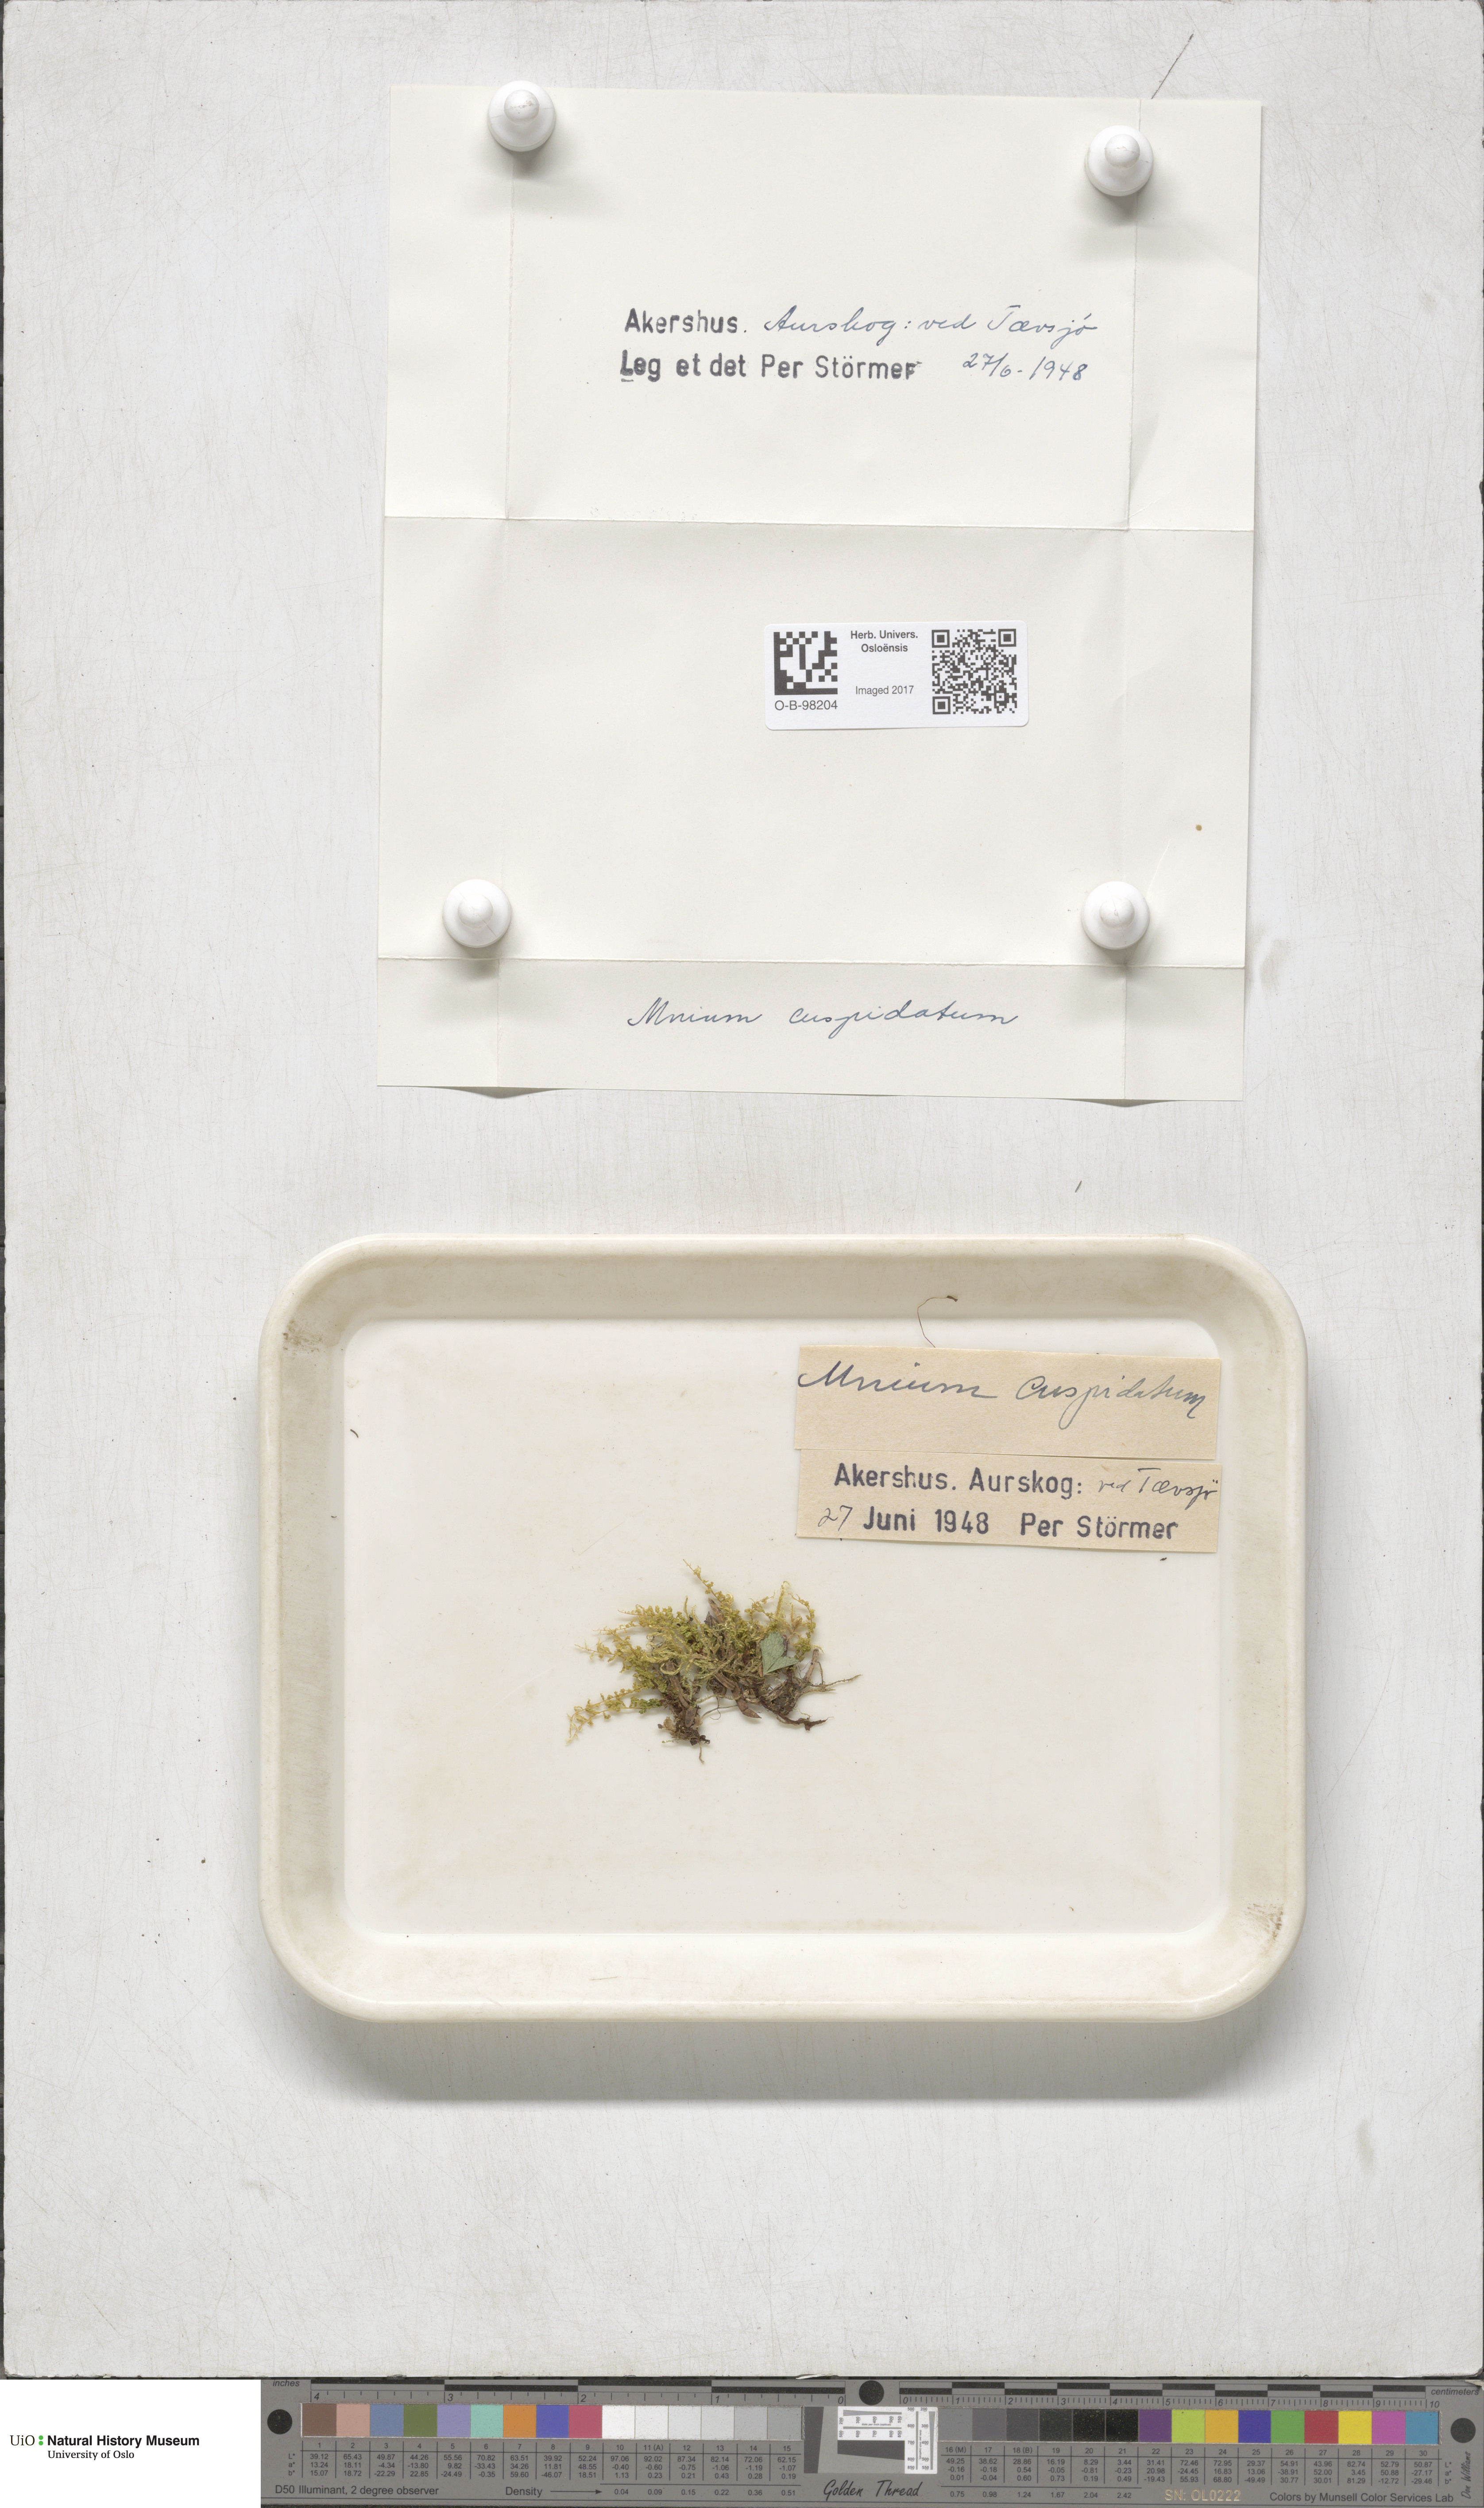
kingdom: Plantae
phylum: Bryophyta
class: Bryopsida
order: Bryales
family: Mniaceae
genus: Plagiomnium
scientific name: Plagiomnium affine
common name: Many-fruited thyme-moss
